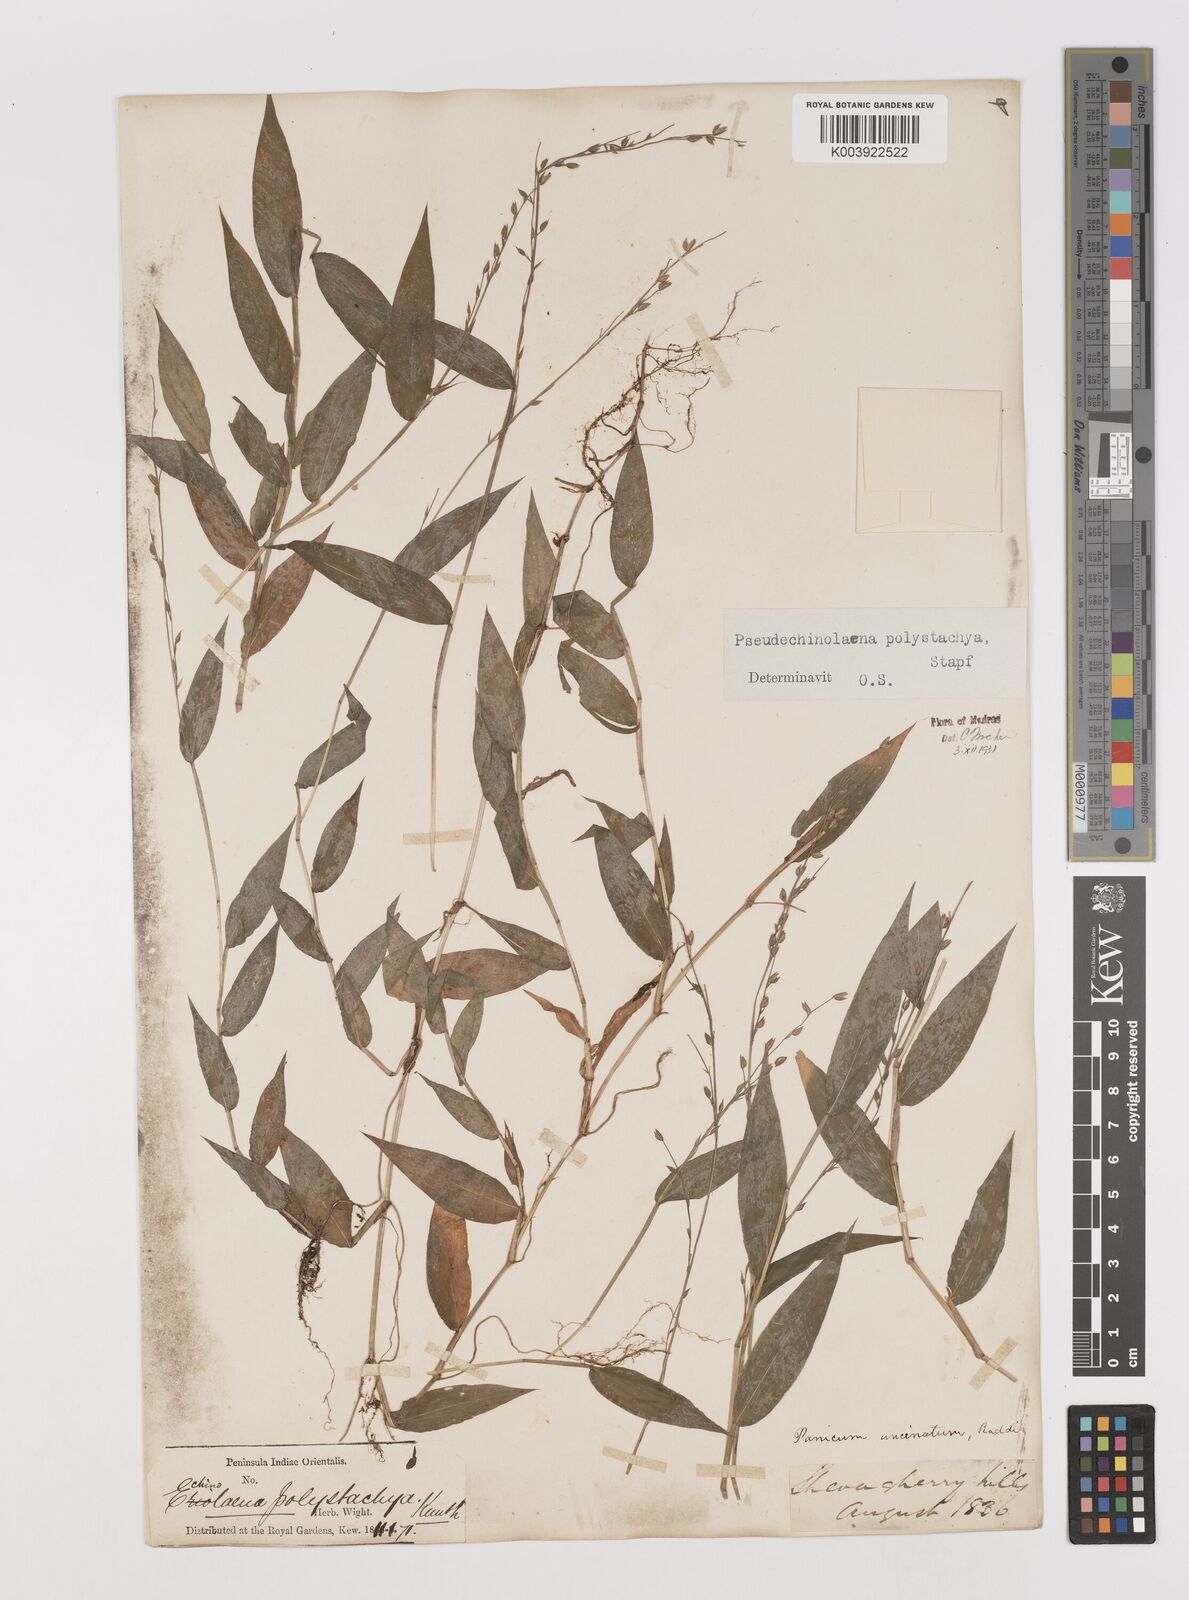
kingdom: Plantae
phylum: Tracheophyta
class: Liliopsida
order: Poales
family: Poaceae
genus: Pseudechinolaena
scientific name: Pseudechinolaena polystachya
